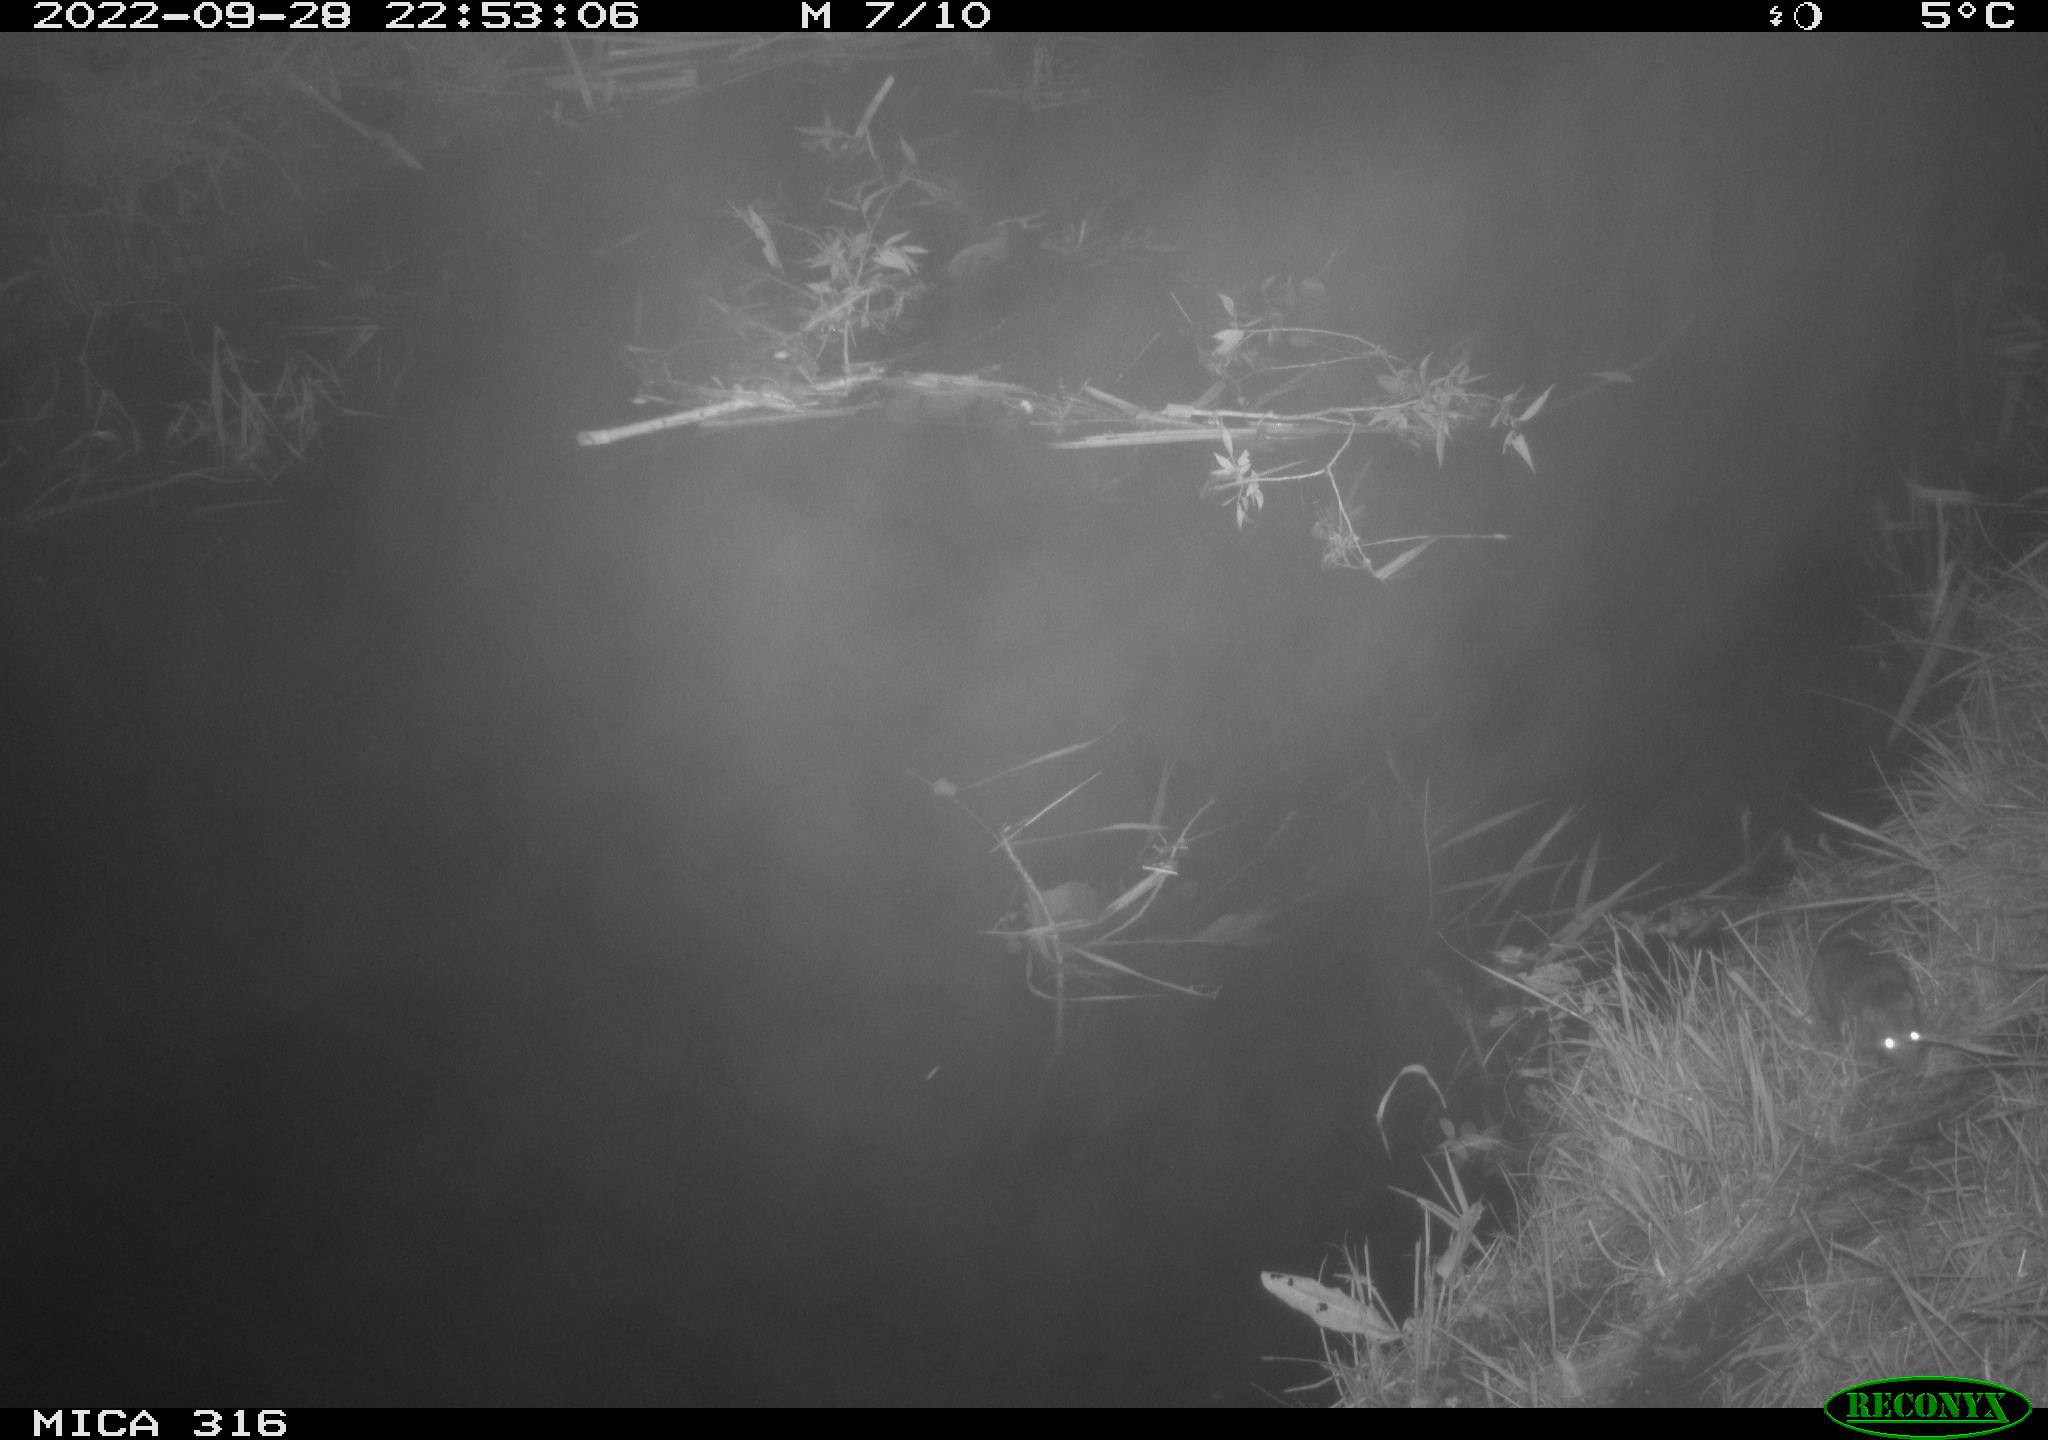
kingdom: Animalia
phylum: Chordata
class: Mammalia
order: Rodentia
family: Muridae
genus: Rattus
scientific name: Rattus norvegicus
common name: Brown rat
